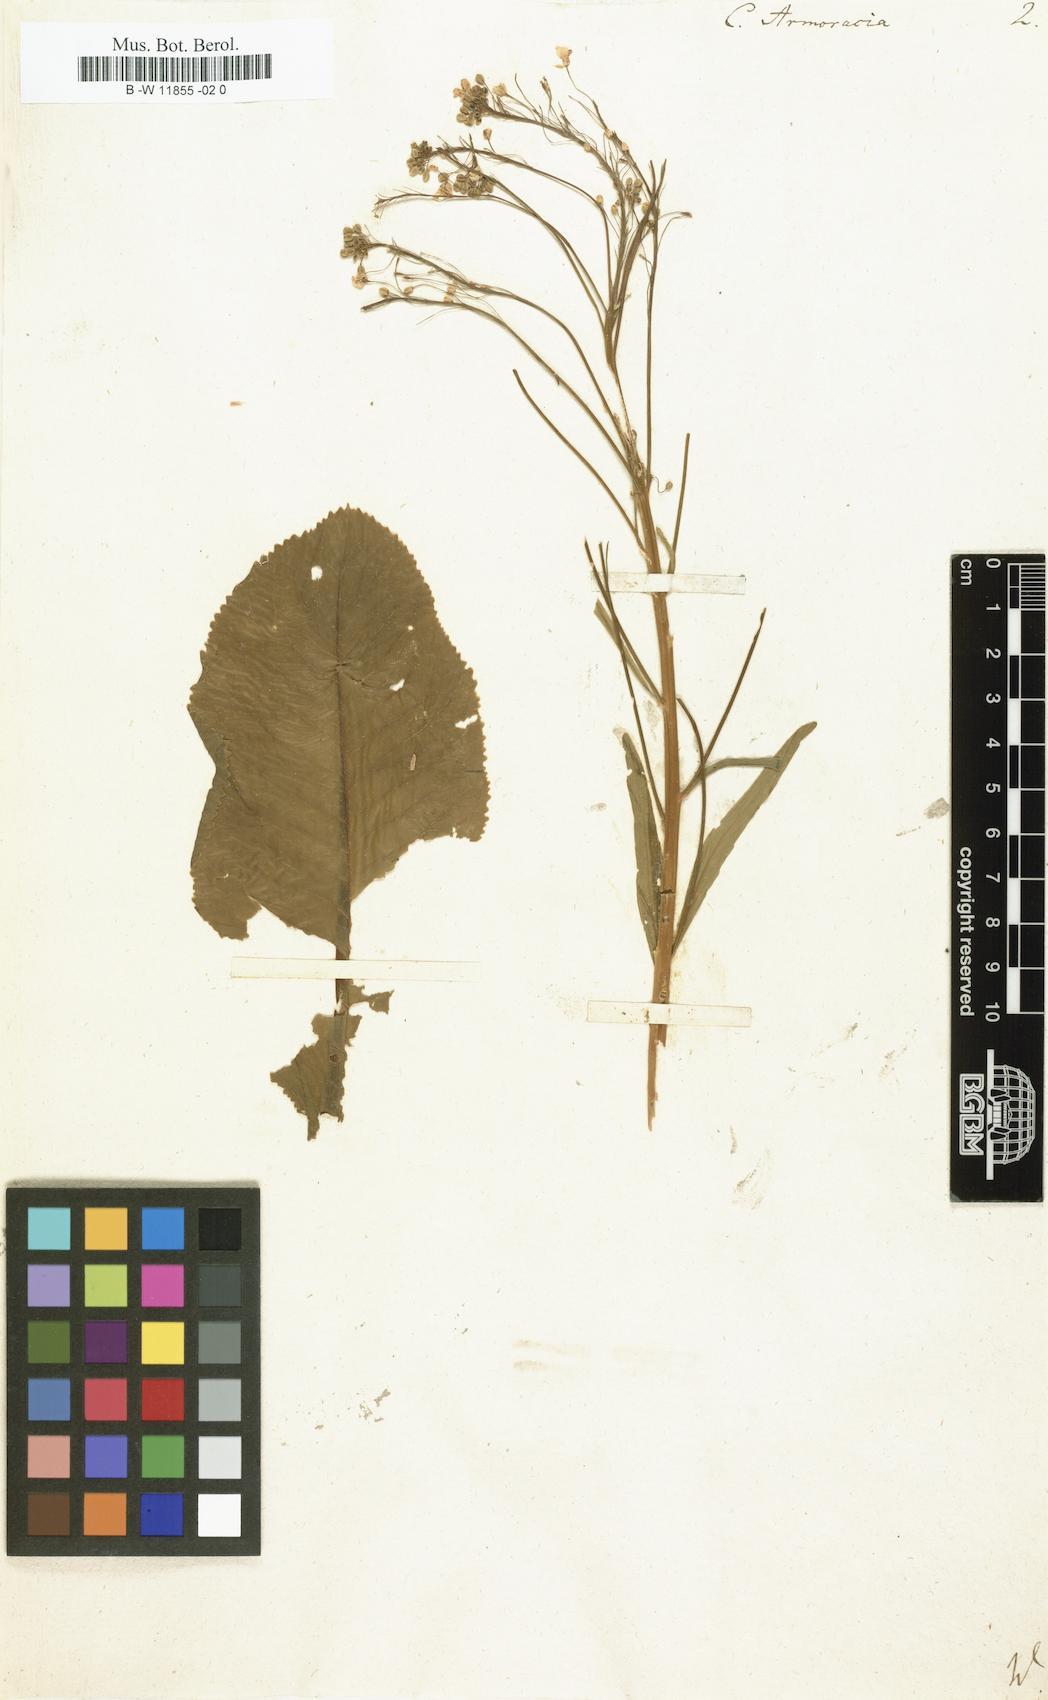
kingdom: Plantae
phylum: Tracheophyta
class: Magnoliopsida
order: Brassicales
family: Brassicaceae
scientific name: Brassicaceae
